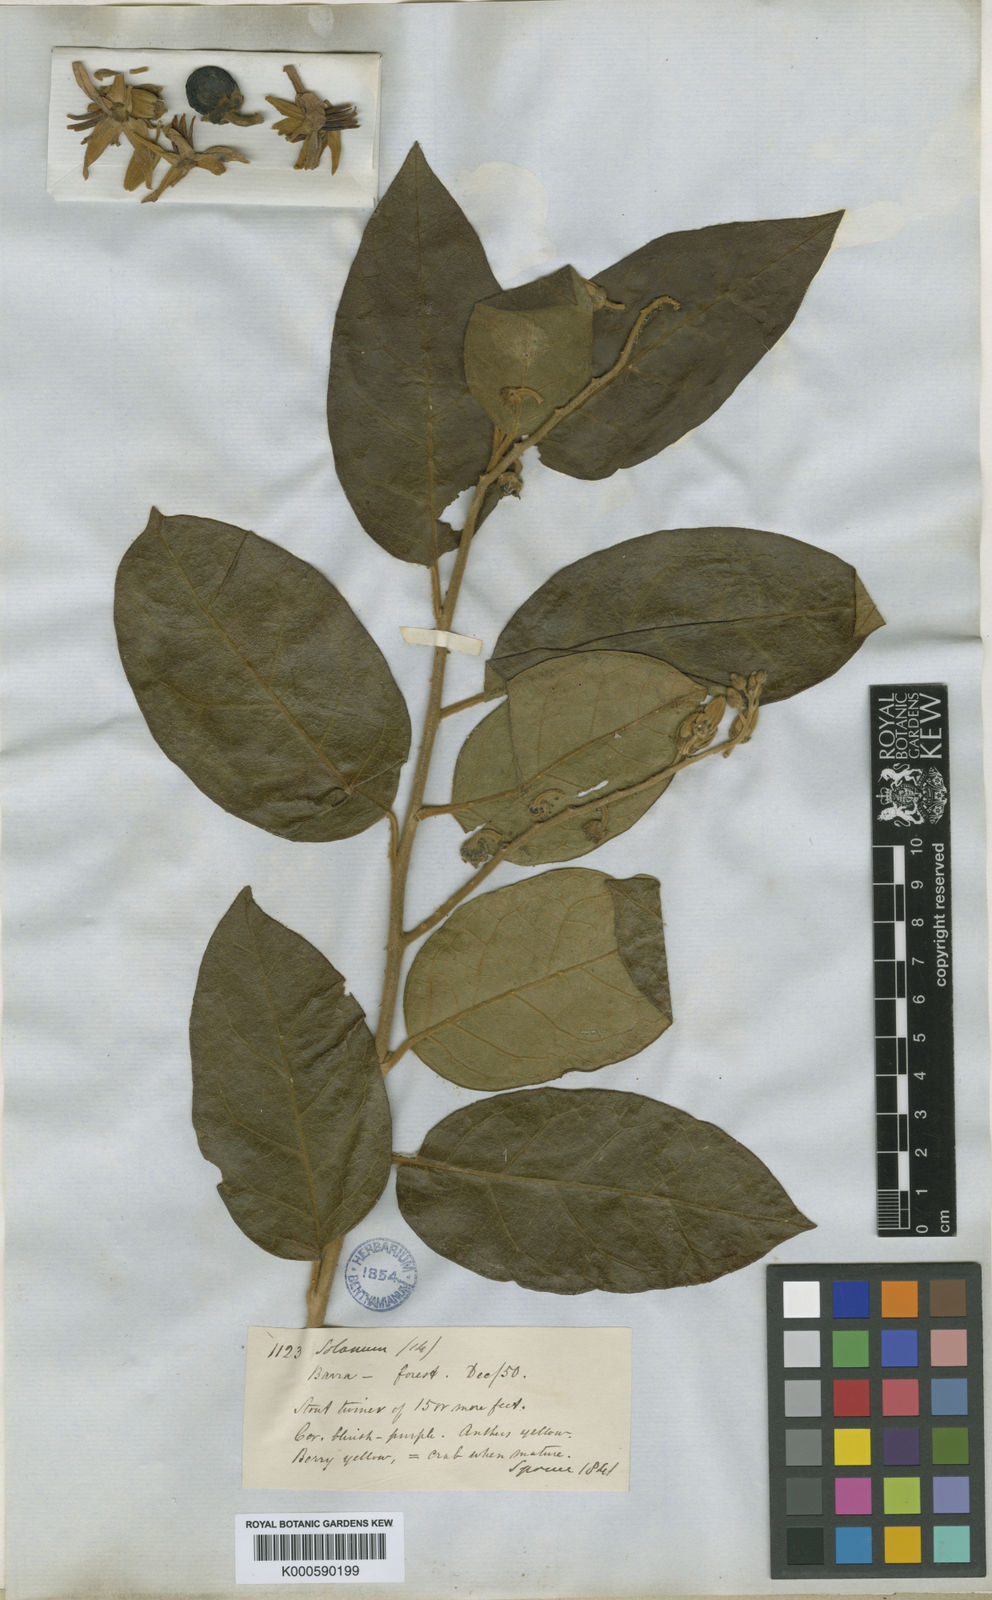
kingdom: Plantae
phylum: Tracheophyta
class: Magnoliopsida
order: Solanales
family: Solanaceae
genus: Solanum
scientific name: Solanum
